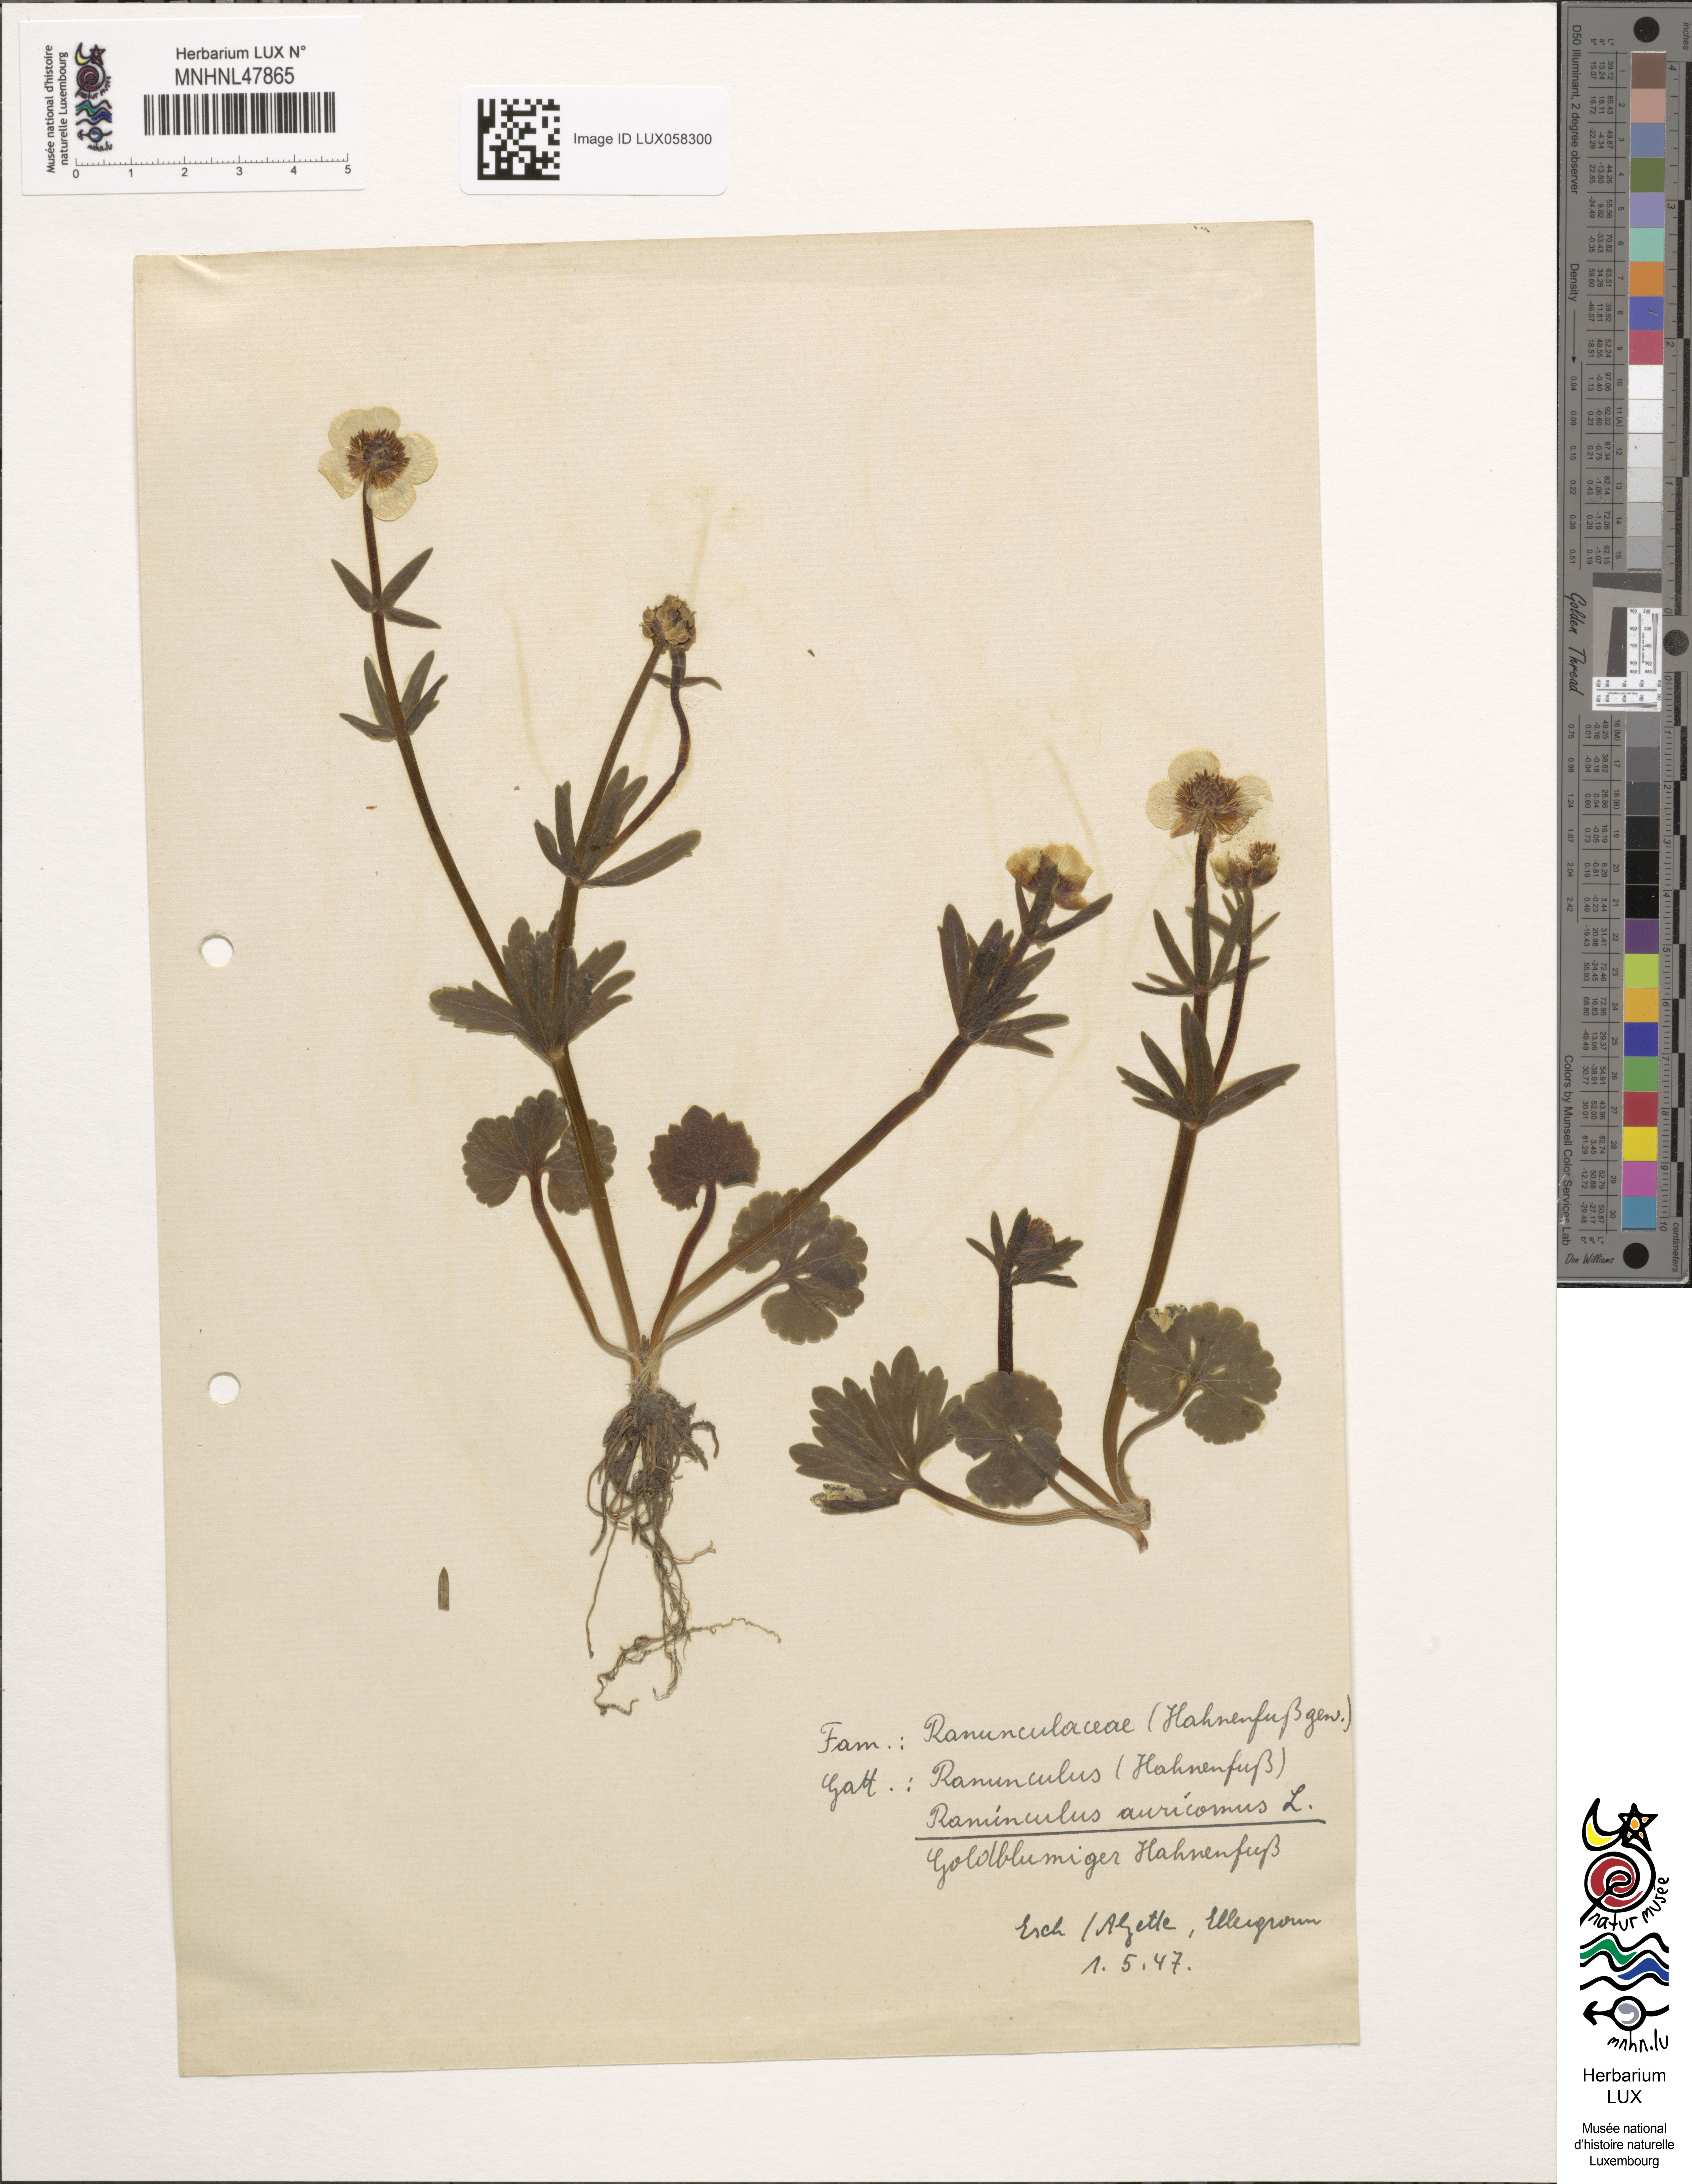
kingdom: Plantae
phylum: Tracheophyta
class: Magnoliopsida
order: Ranunculales
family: Ranunculaceae
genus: Ranunculus
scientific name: Ranunculus auricomus
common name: Goldilocks buttercup
